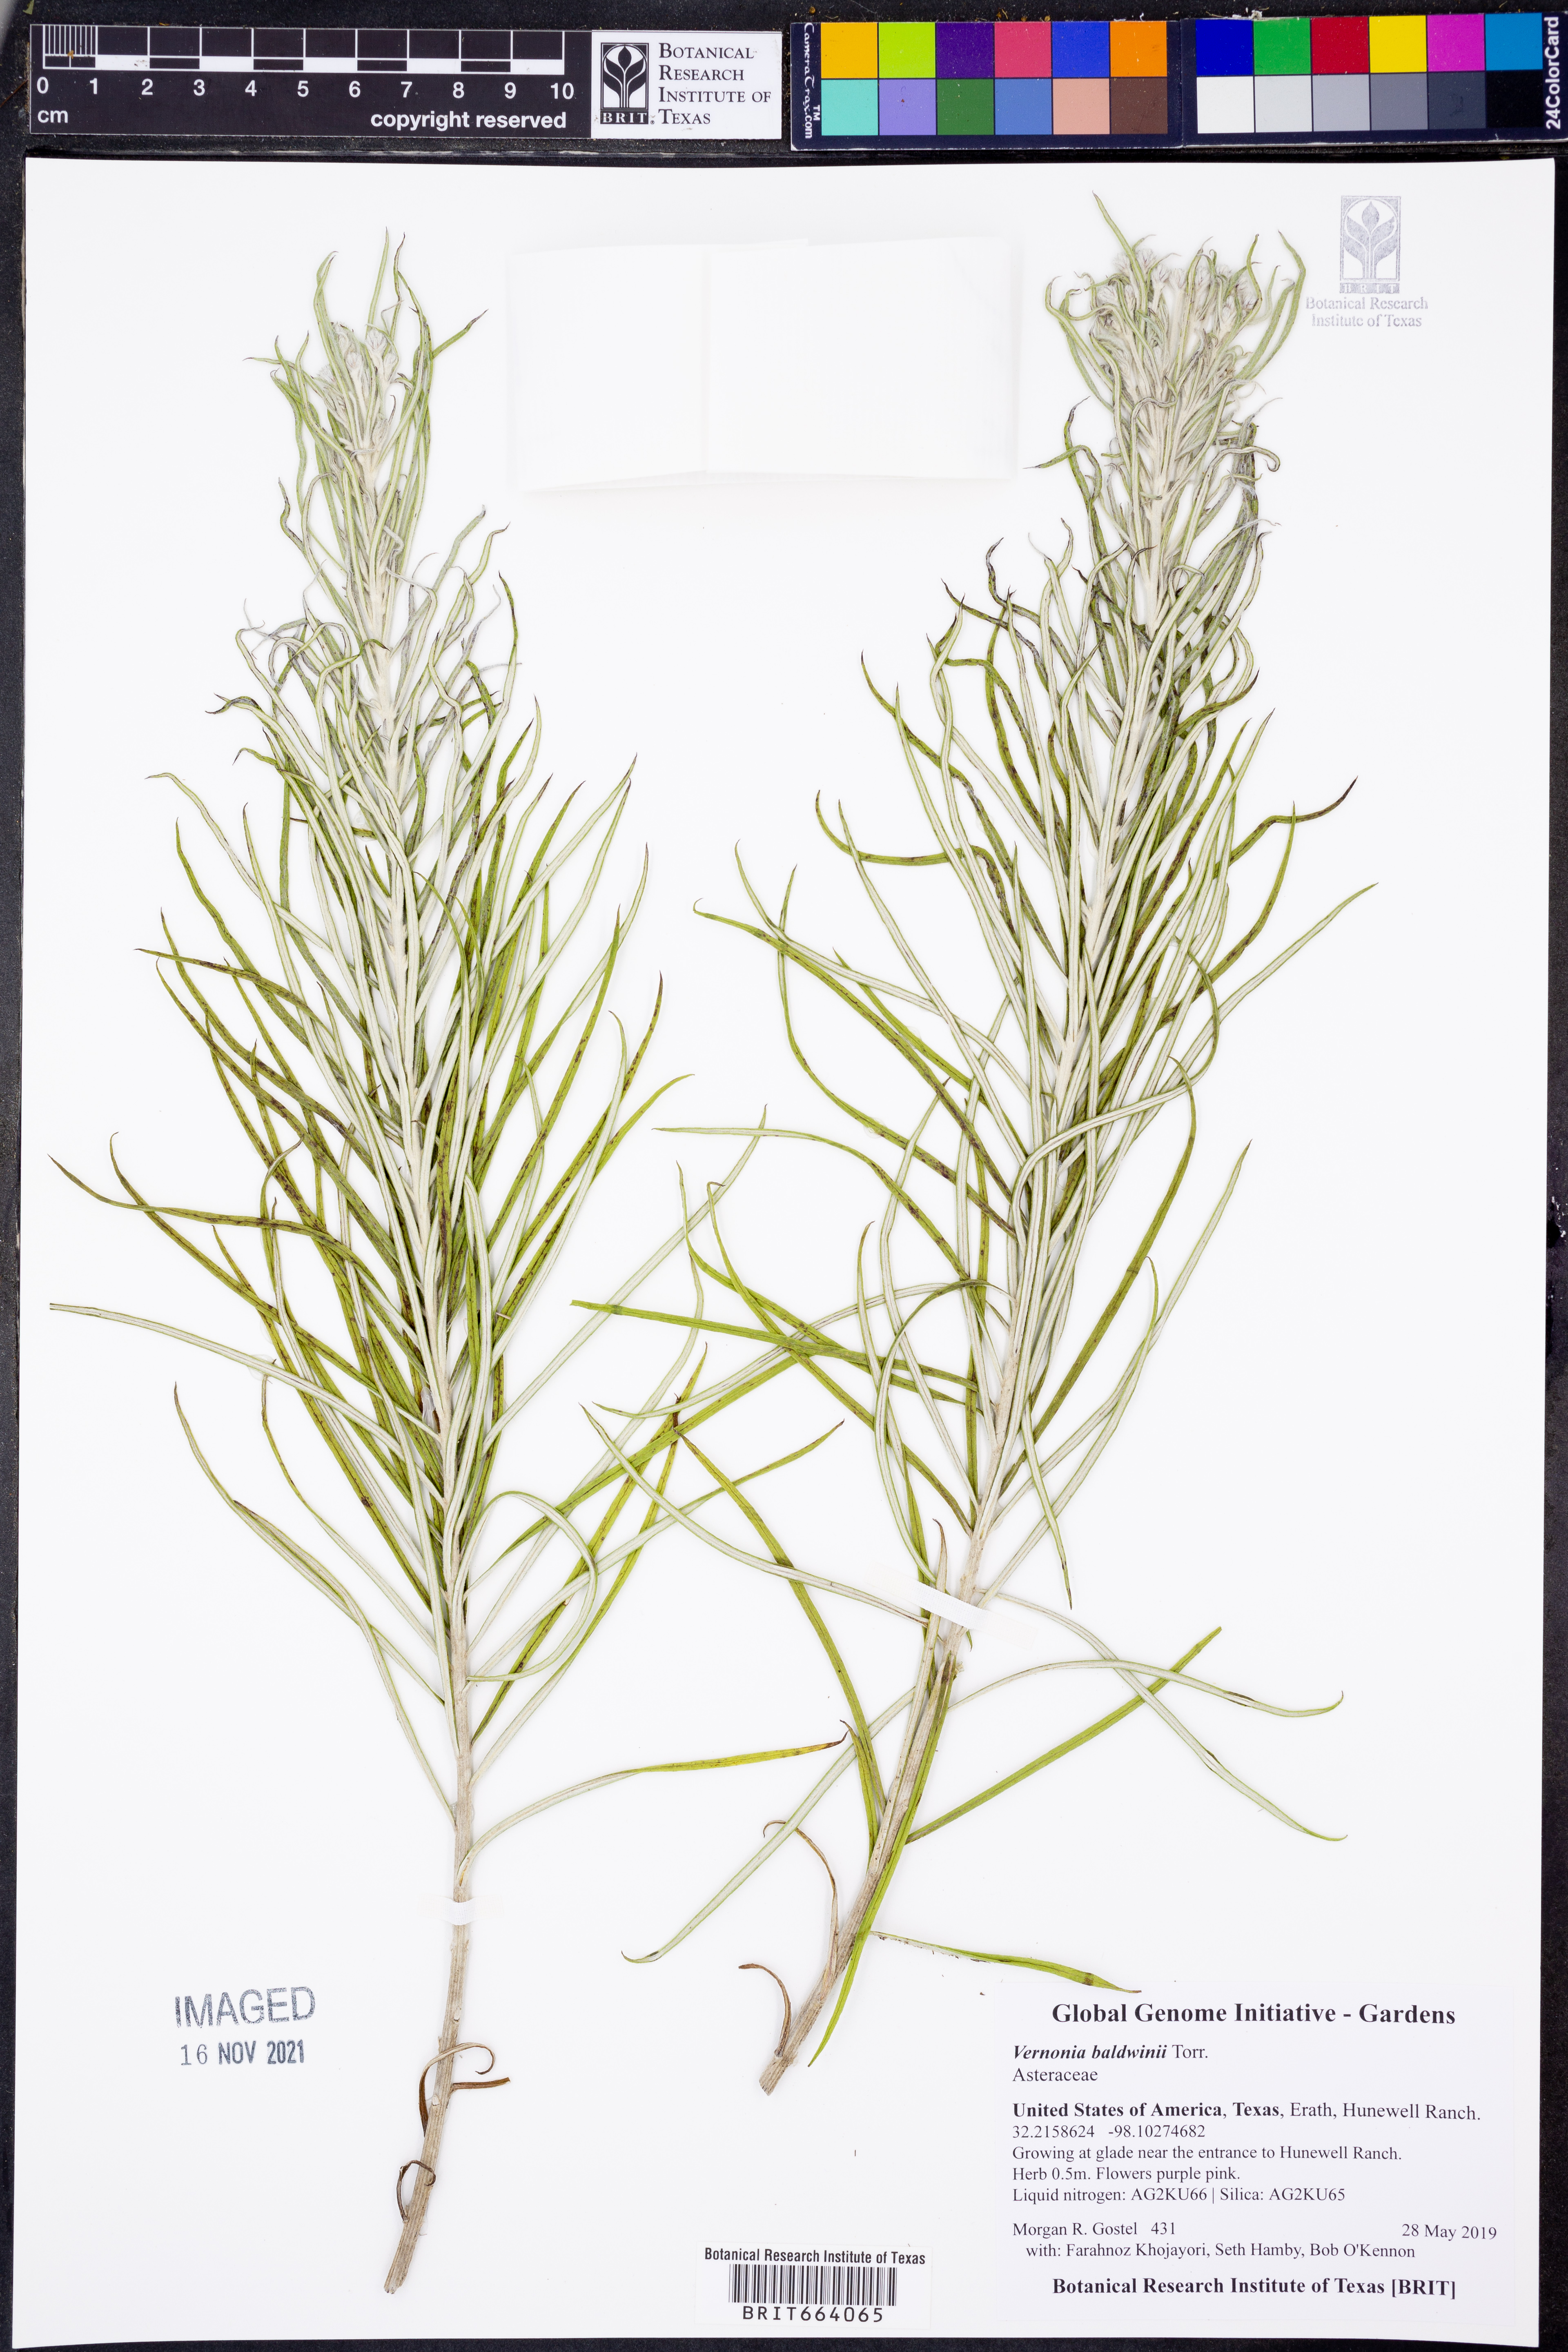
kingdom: Plantae
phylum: Tracheophyta
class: Magnoliopsida
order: Asterales
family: Asteraceae
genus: Vernonia
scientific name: Vernonia baldwinii
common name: Western ironweed
